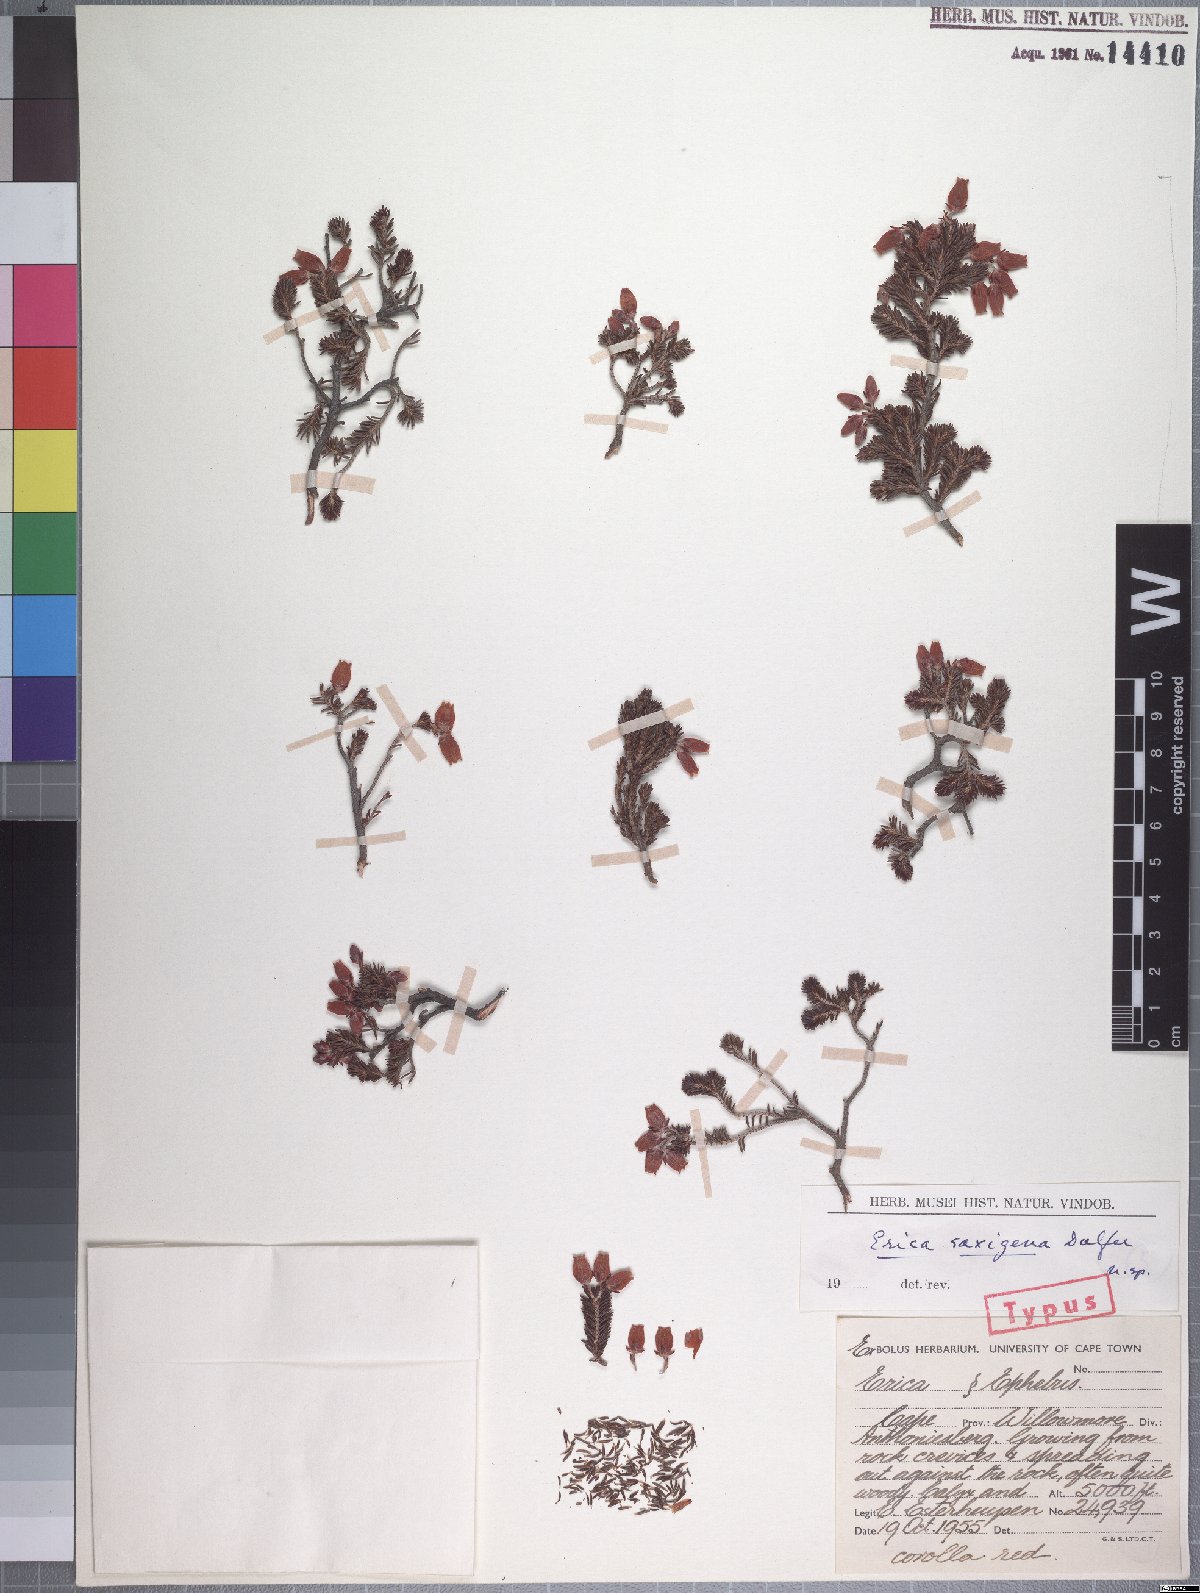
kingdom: Plantae
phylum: Tracheophyta
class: Magnoliopsida
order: Ericales
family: Ericaceae
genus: Erica
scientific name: Erica saxigena
